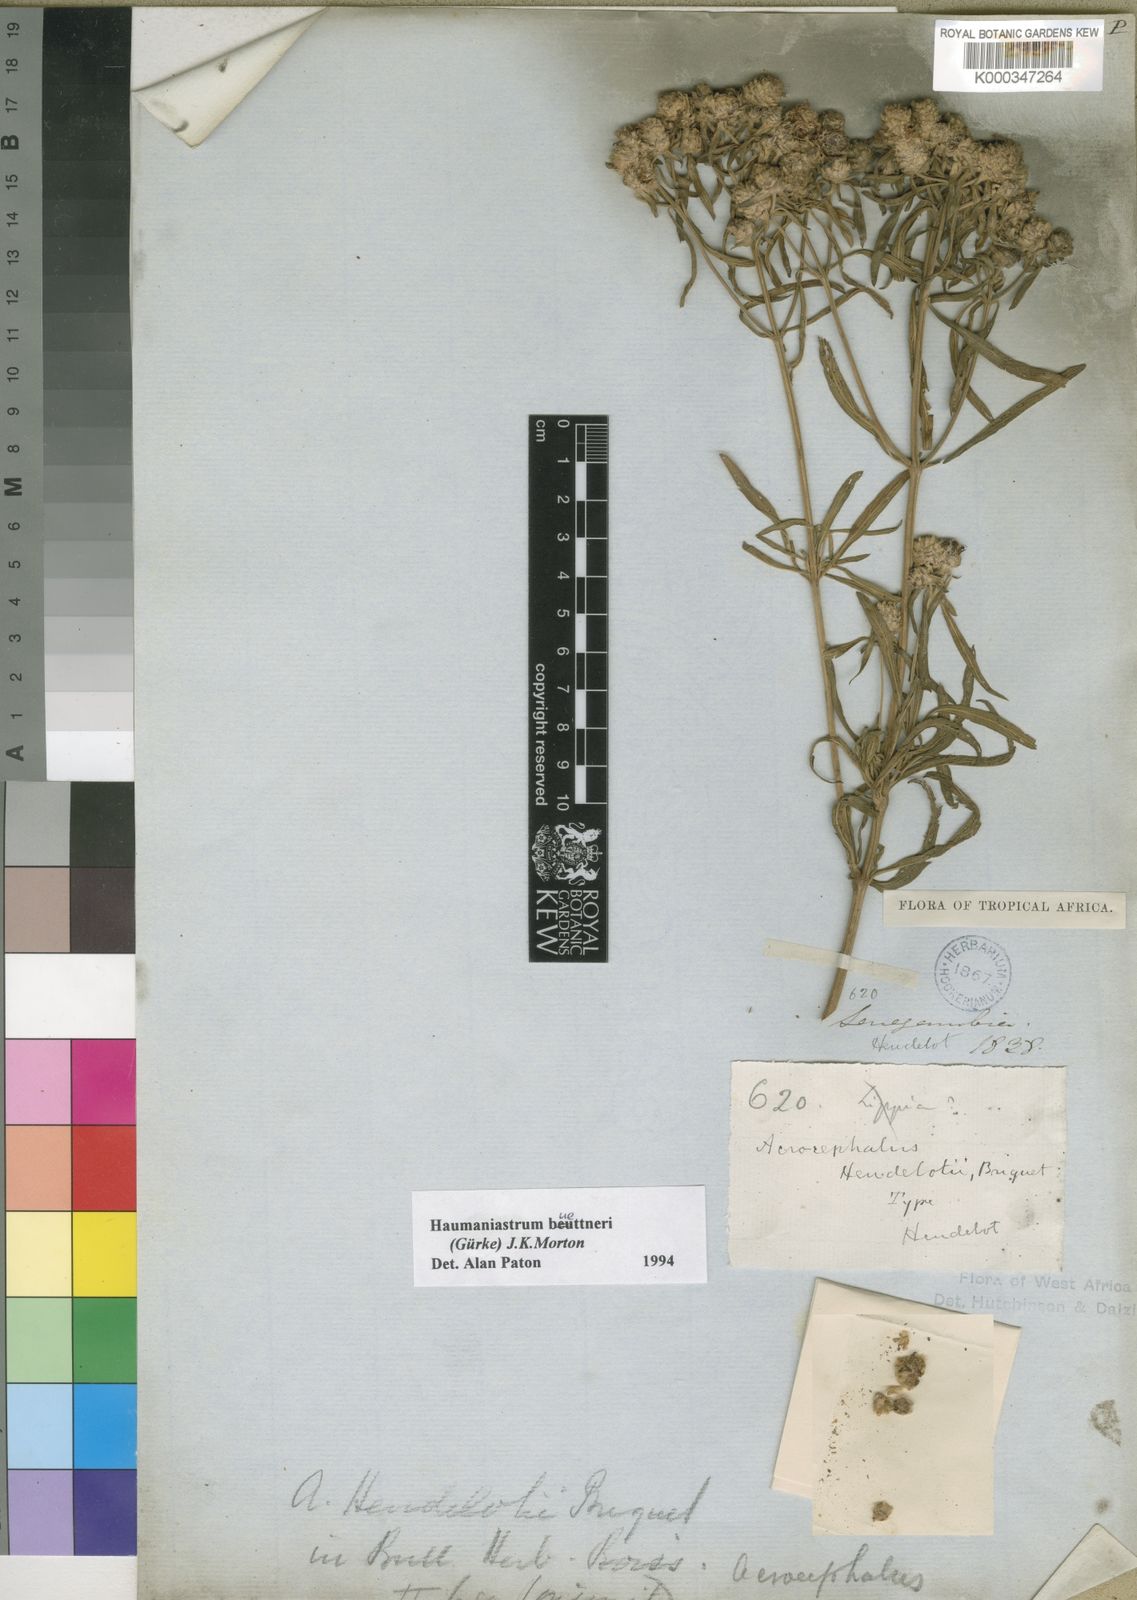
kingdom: Plantae
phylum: Tracheophyta
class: Magnoliopsida
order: Lamiales
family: Lamiaceae
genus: Haumaniastrum
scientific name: Haumaniastrum
